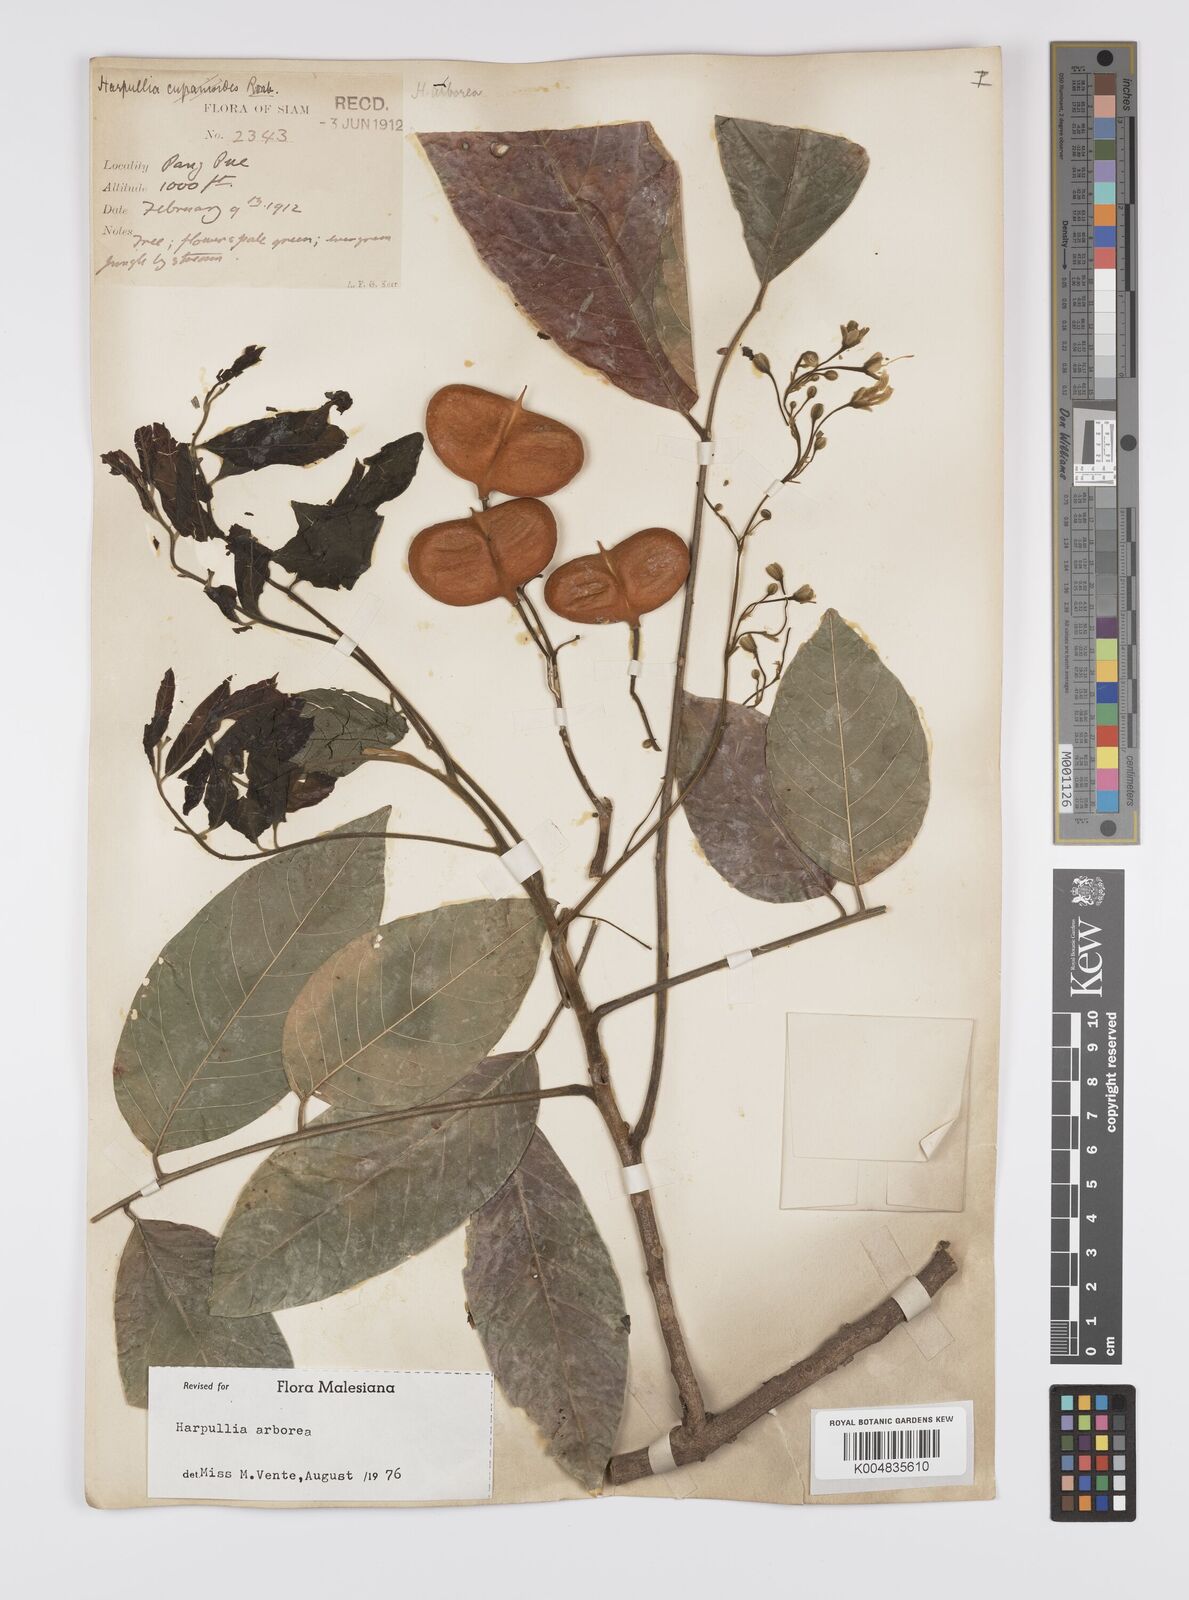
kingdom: Plantae
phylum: Tracheophyta
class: Magnoliopsida
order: Sapindales
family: Sapindaceae
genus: Harpullia
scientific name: Harpullia arborea
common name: Tulip-wood tree
